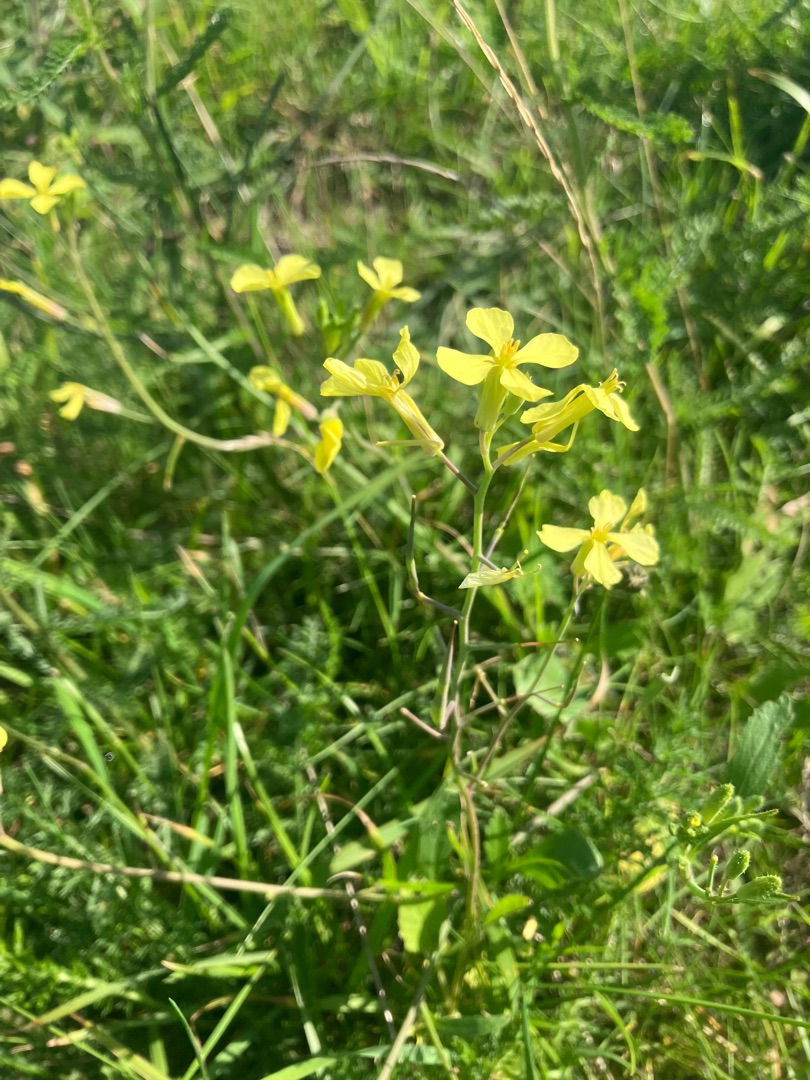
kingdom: Plantae
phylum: Tracheophyta
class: Magnoliopsida
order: Brassicales
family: Brassicaceae
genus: Raphanus
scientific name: Raphanus raphanistrum
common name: Kiddike
